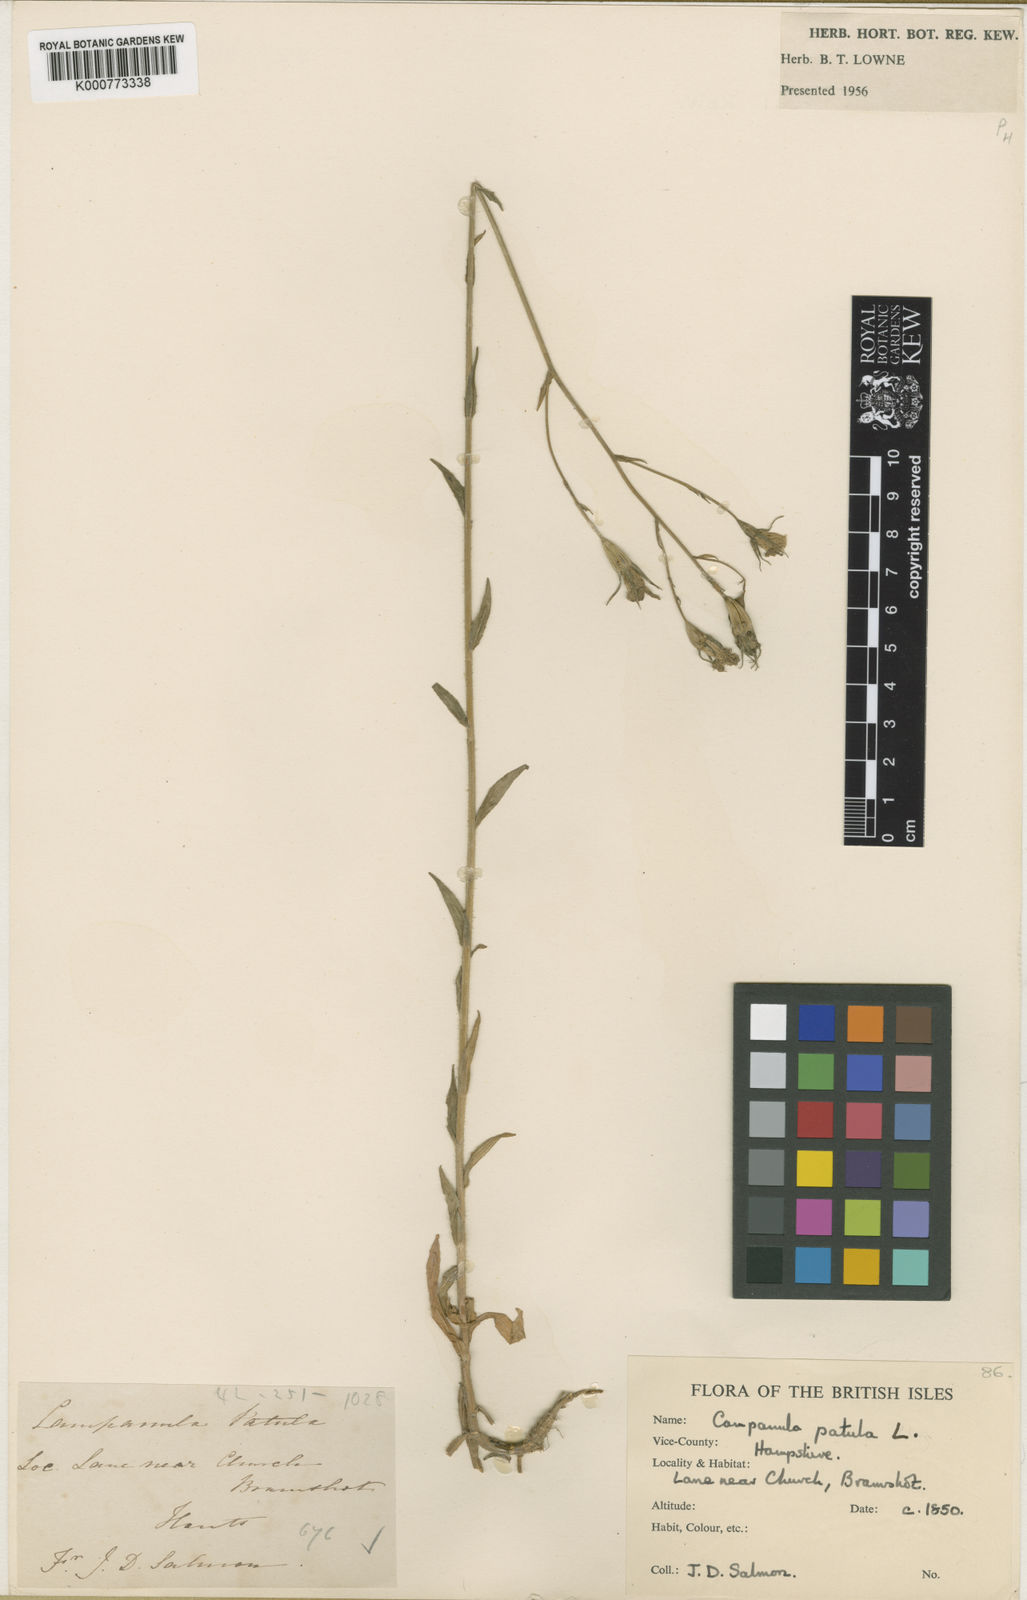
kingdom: Plantae
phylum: Tracheophyta
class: Magnoliopsida
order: Asterales
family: Campanulaceae
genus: Campanula
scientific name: Campanula patula
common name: Spreading bellflower
